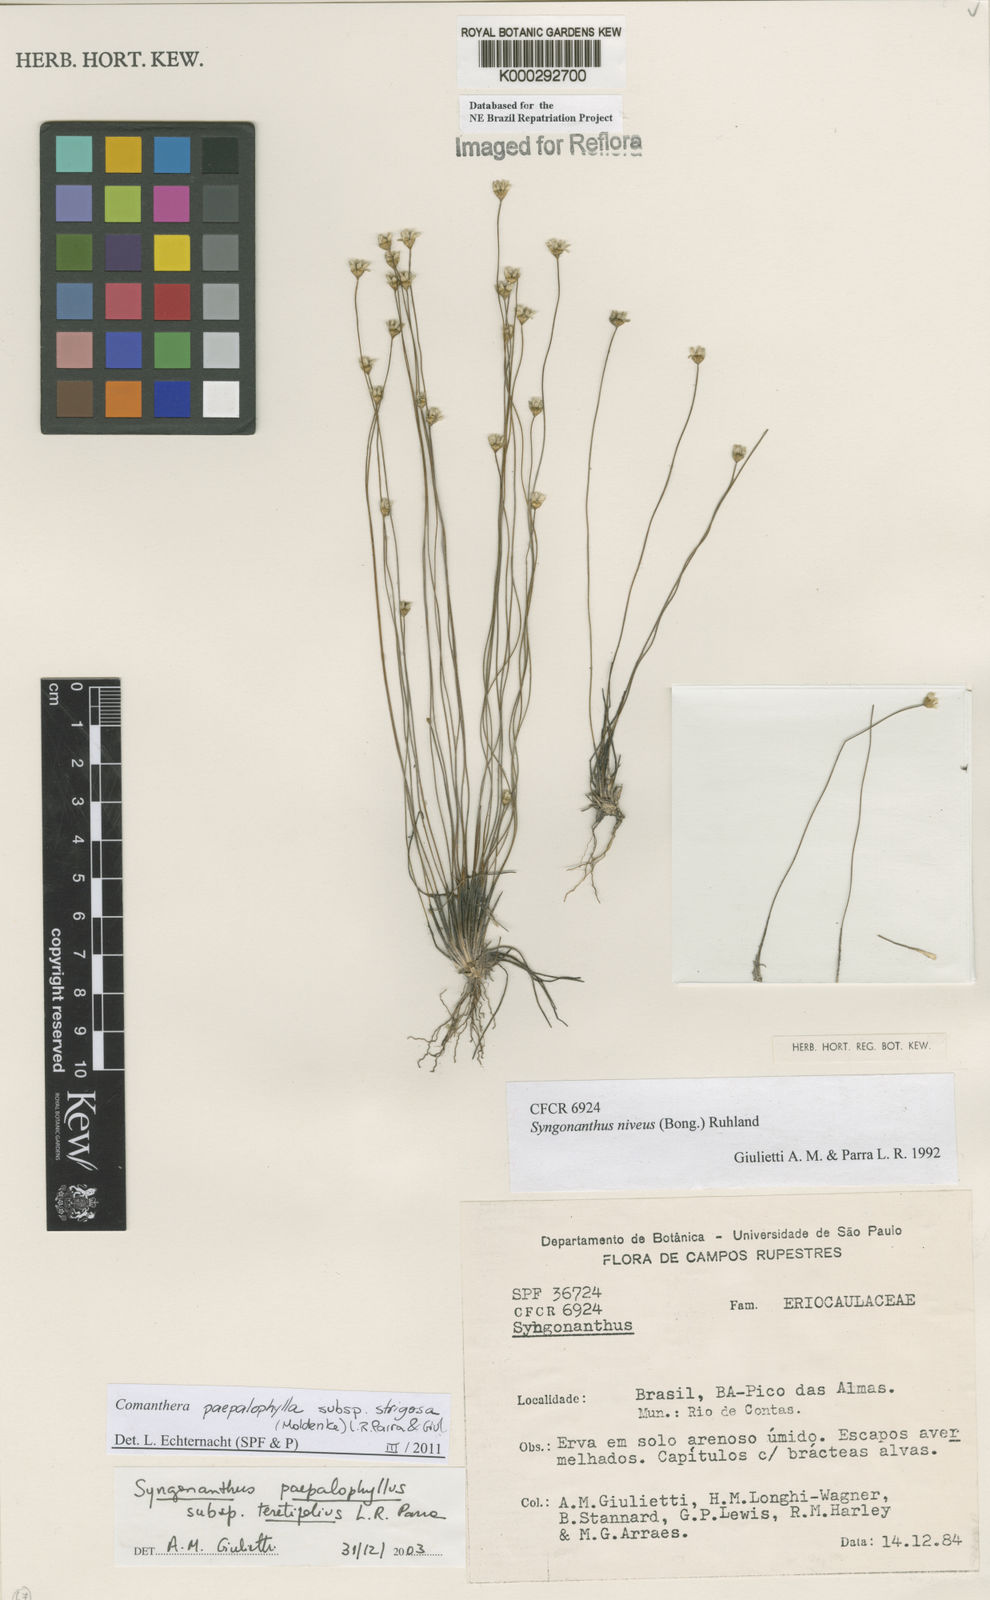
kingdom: Plantae
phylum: Tracheophyta
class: Liliopsida
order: Poales
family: Eriocaulaceae
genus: Comanthera
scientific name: Comanthera paepalophylla
